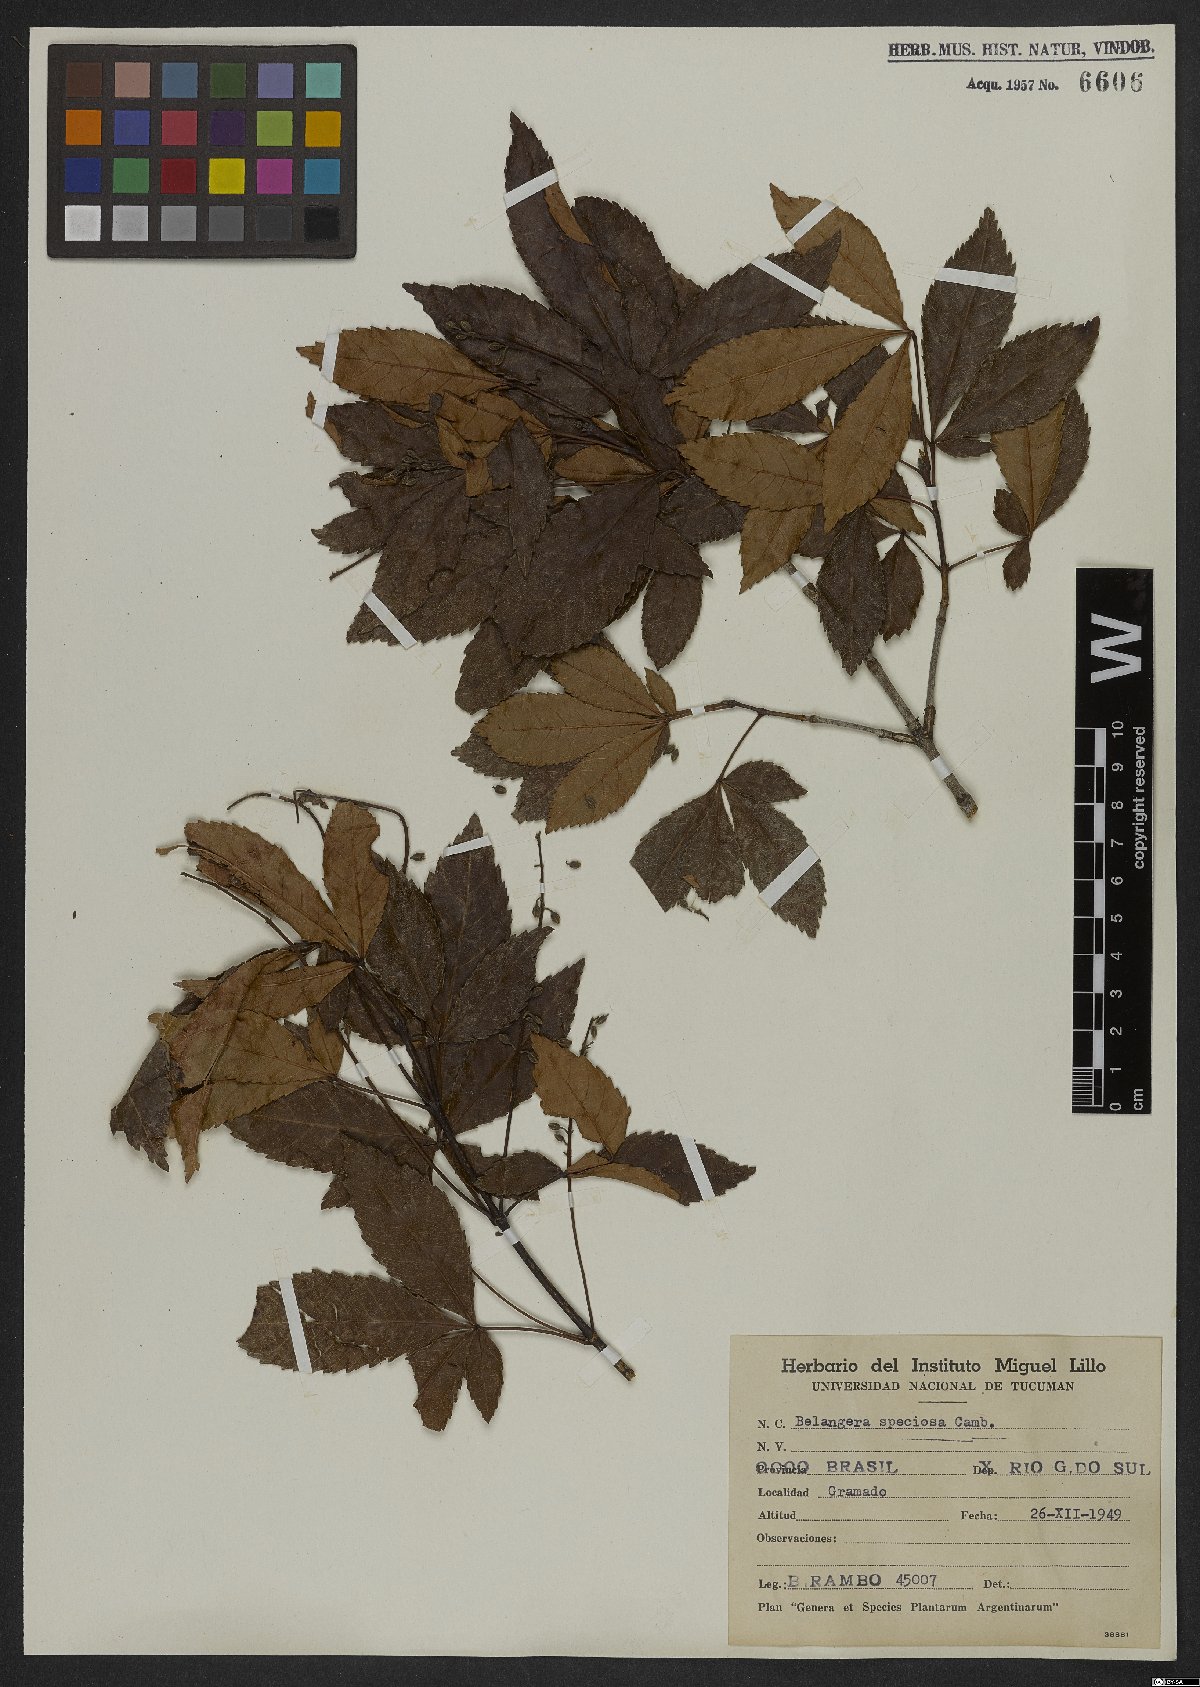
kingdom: Plantae
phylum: Tracheophyta
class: Magnoliopsida
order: Oxalidales
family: Cunoniaceae
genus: Lamanonia
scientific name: Lamanonia speciosa
